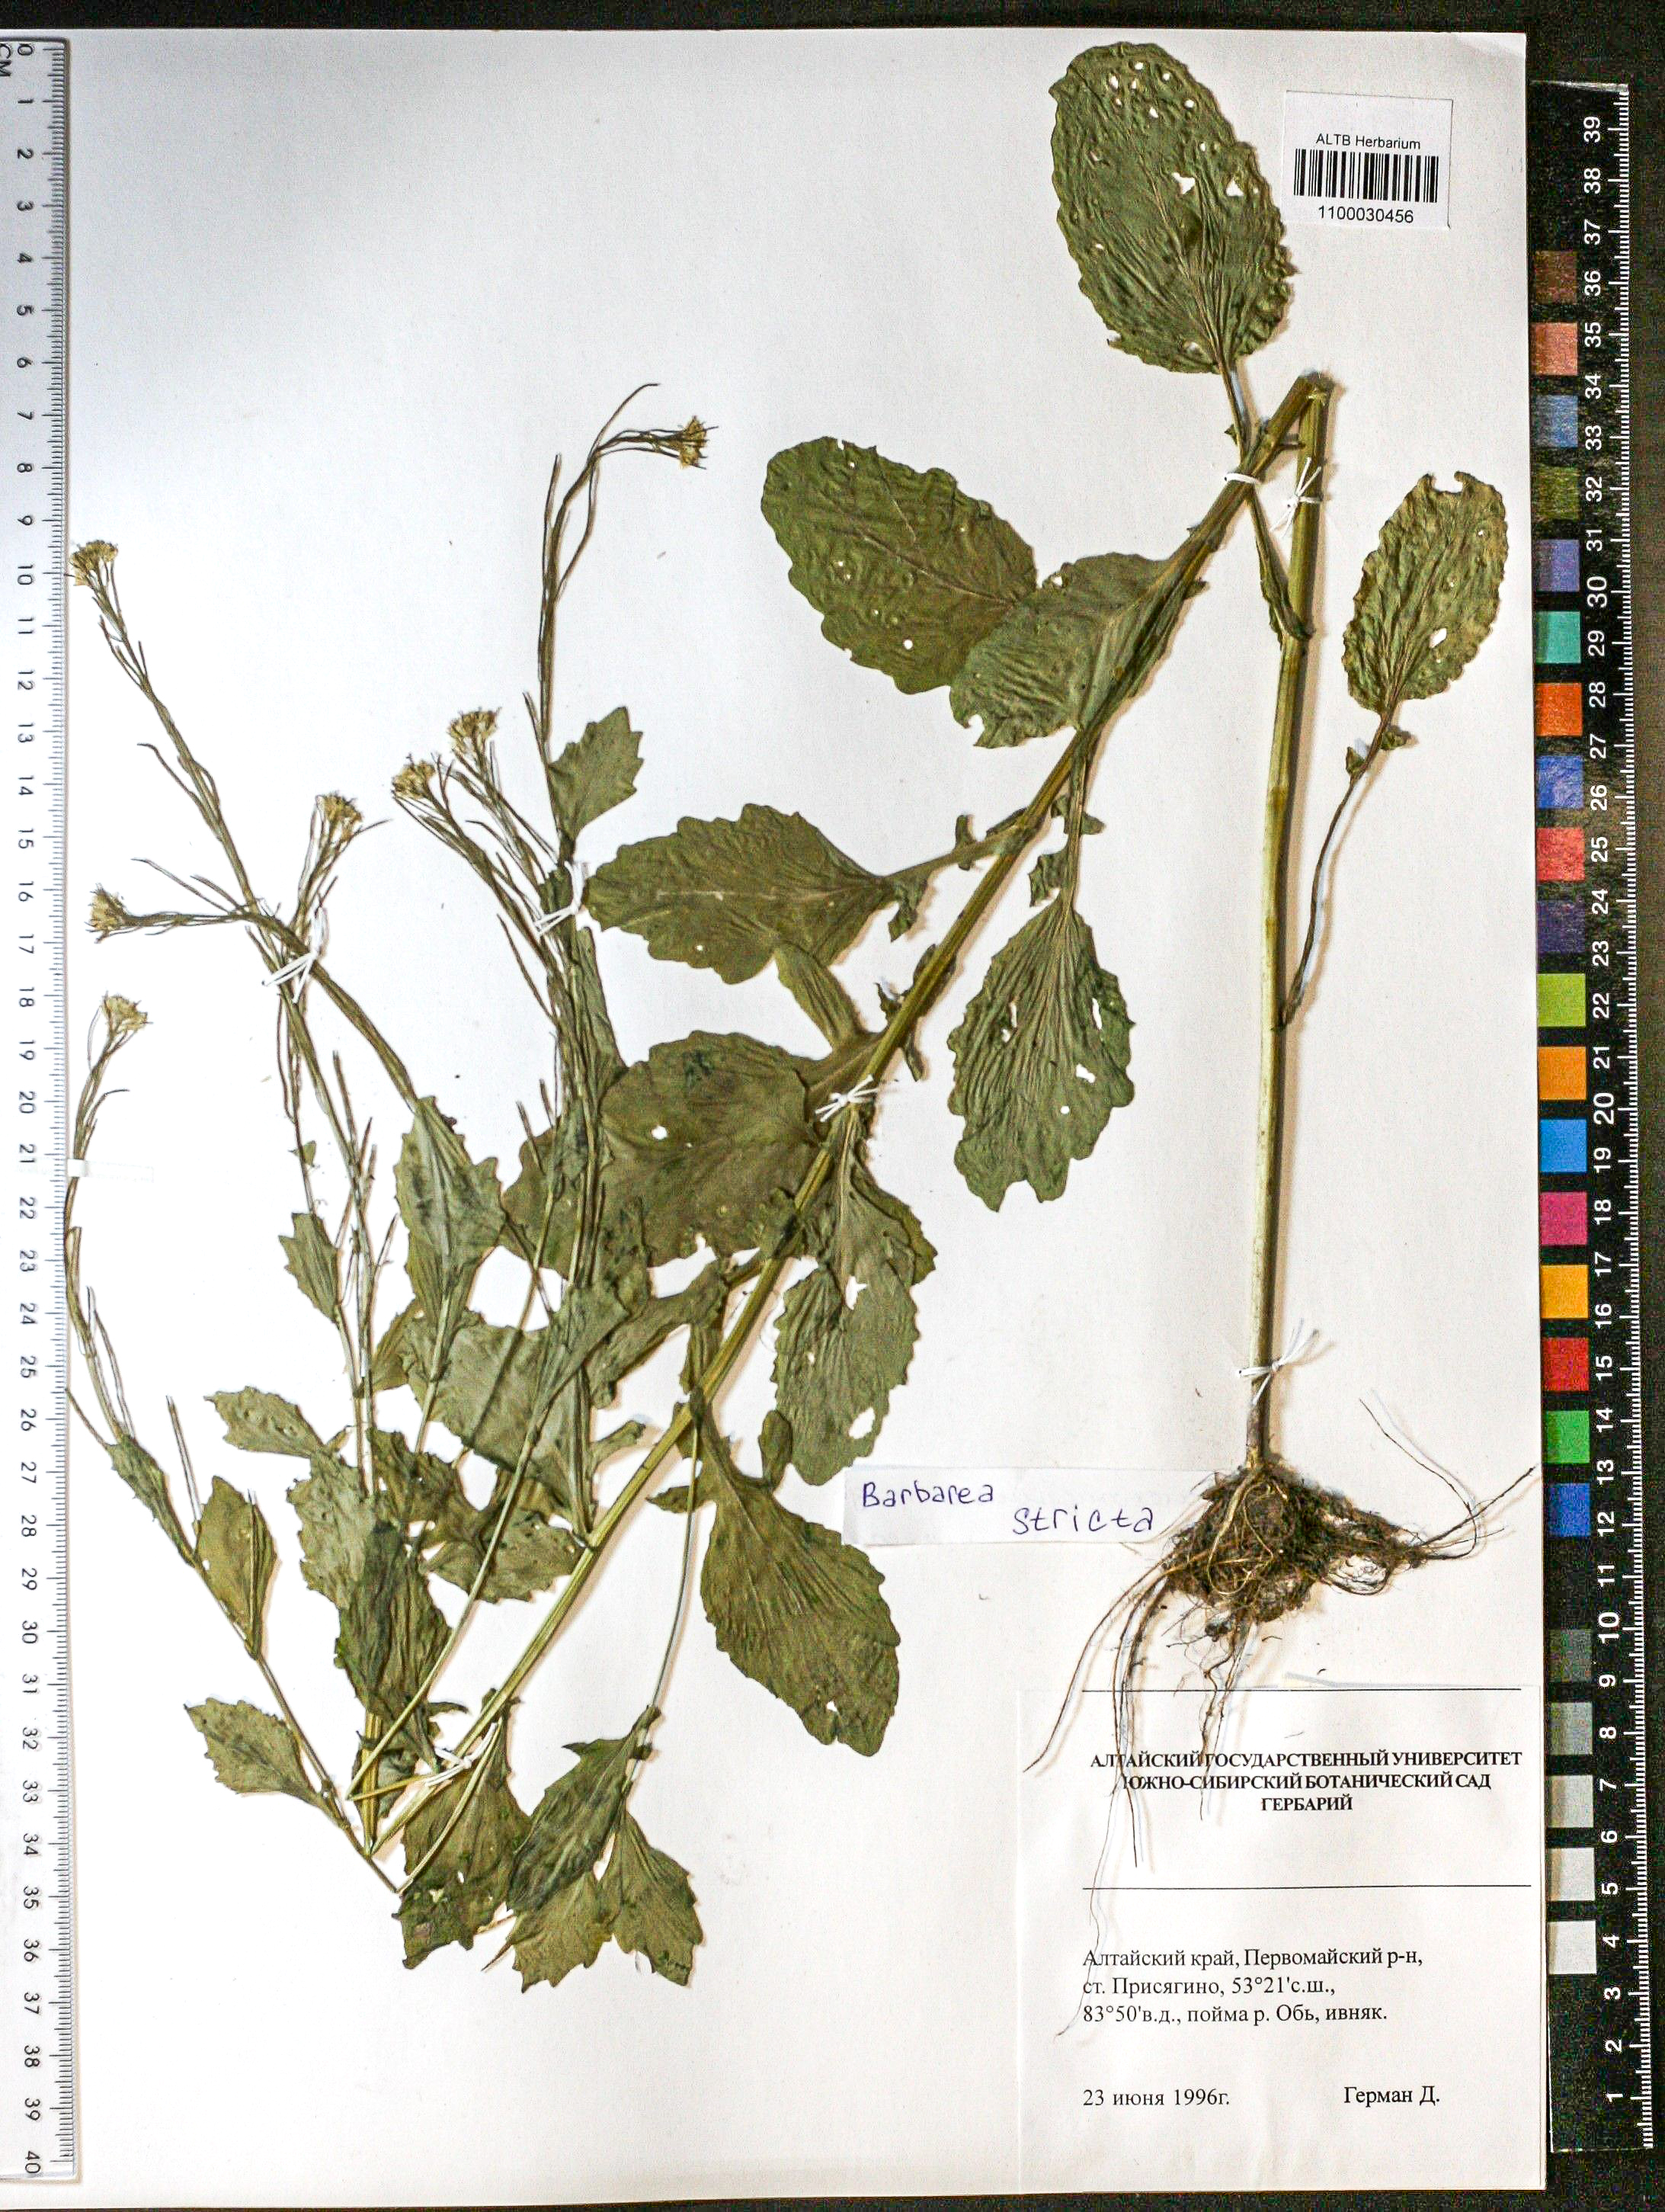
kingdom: Plantae
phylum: Tracheophyta
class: Magnoliopsida
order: Brassicales
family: Brassicaceae
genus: Barbarea
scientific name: Barbarea vulgaris
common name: Cressy-greens
